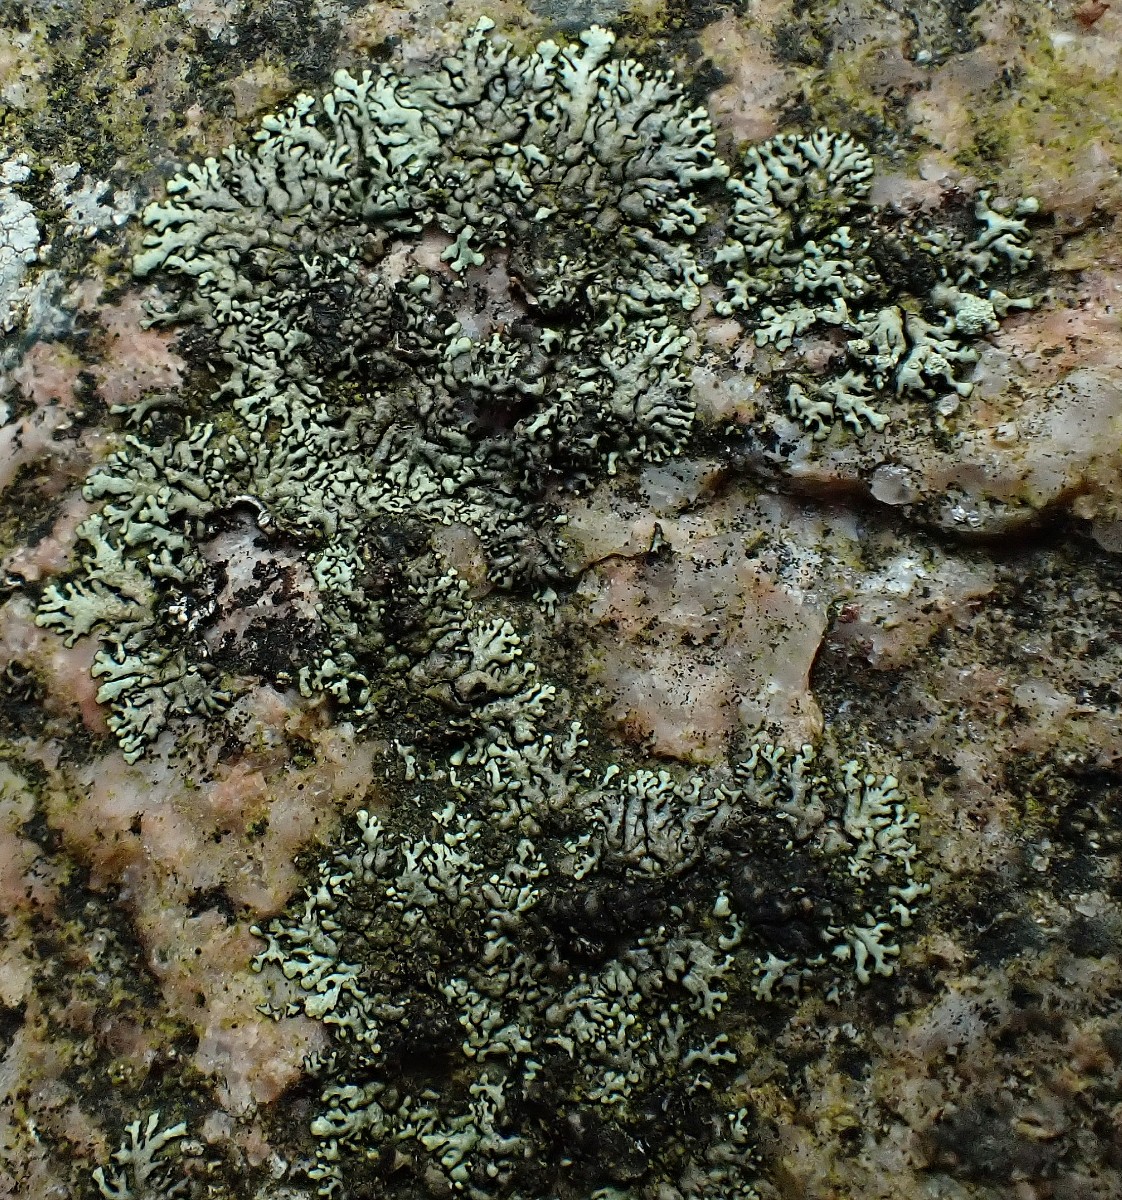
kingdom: Fungi
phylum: Ascomycota
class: Lecanoromycetes
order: Lecanorales
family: Parmeliaceae
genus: Xanthoparmelia
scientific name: Xanthoparmelia mougeotii
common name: liden skållav
